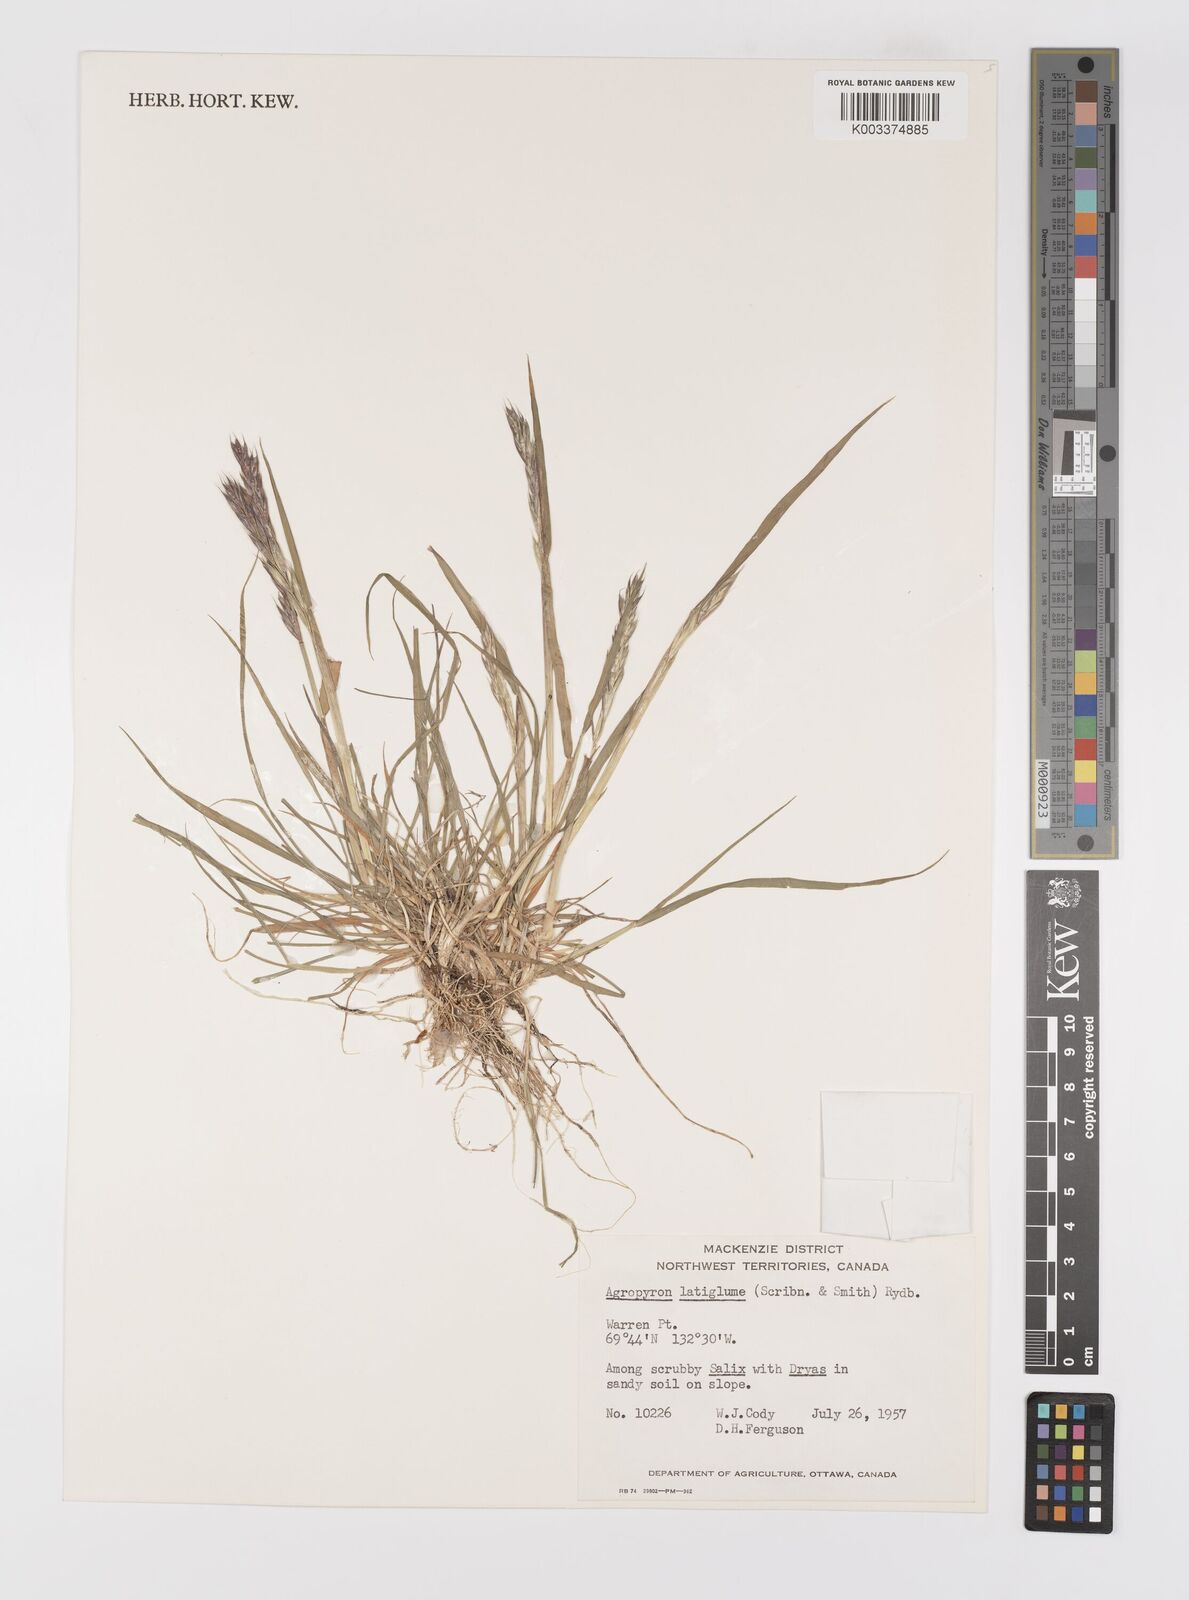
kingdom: Plantae
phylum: Tracheophyta
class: Liliopsida
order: Poales
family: Poaceae
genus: Elymus
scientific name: Elymus violaceus
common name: Arctic wheatgrass
